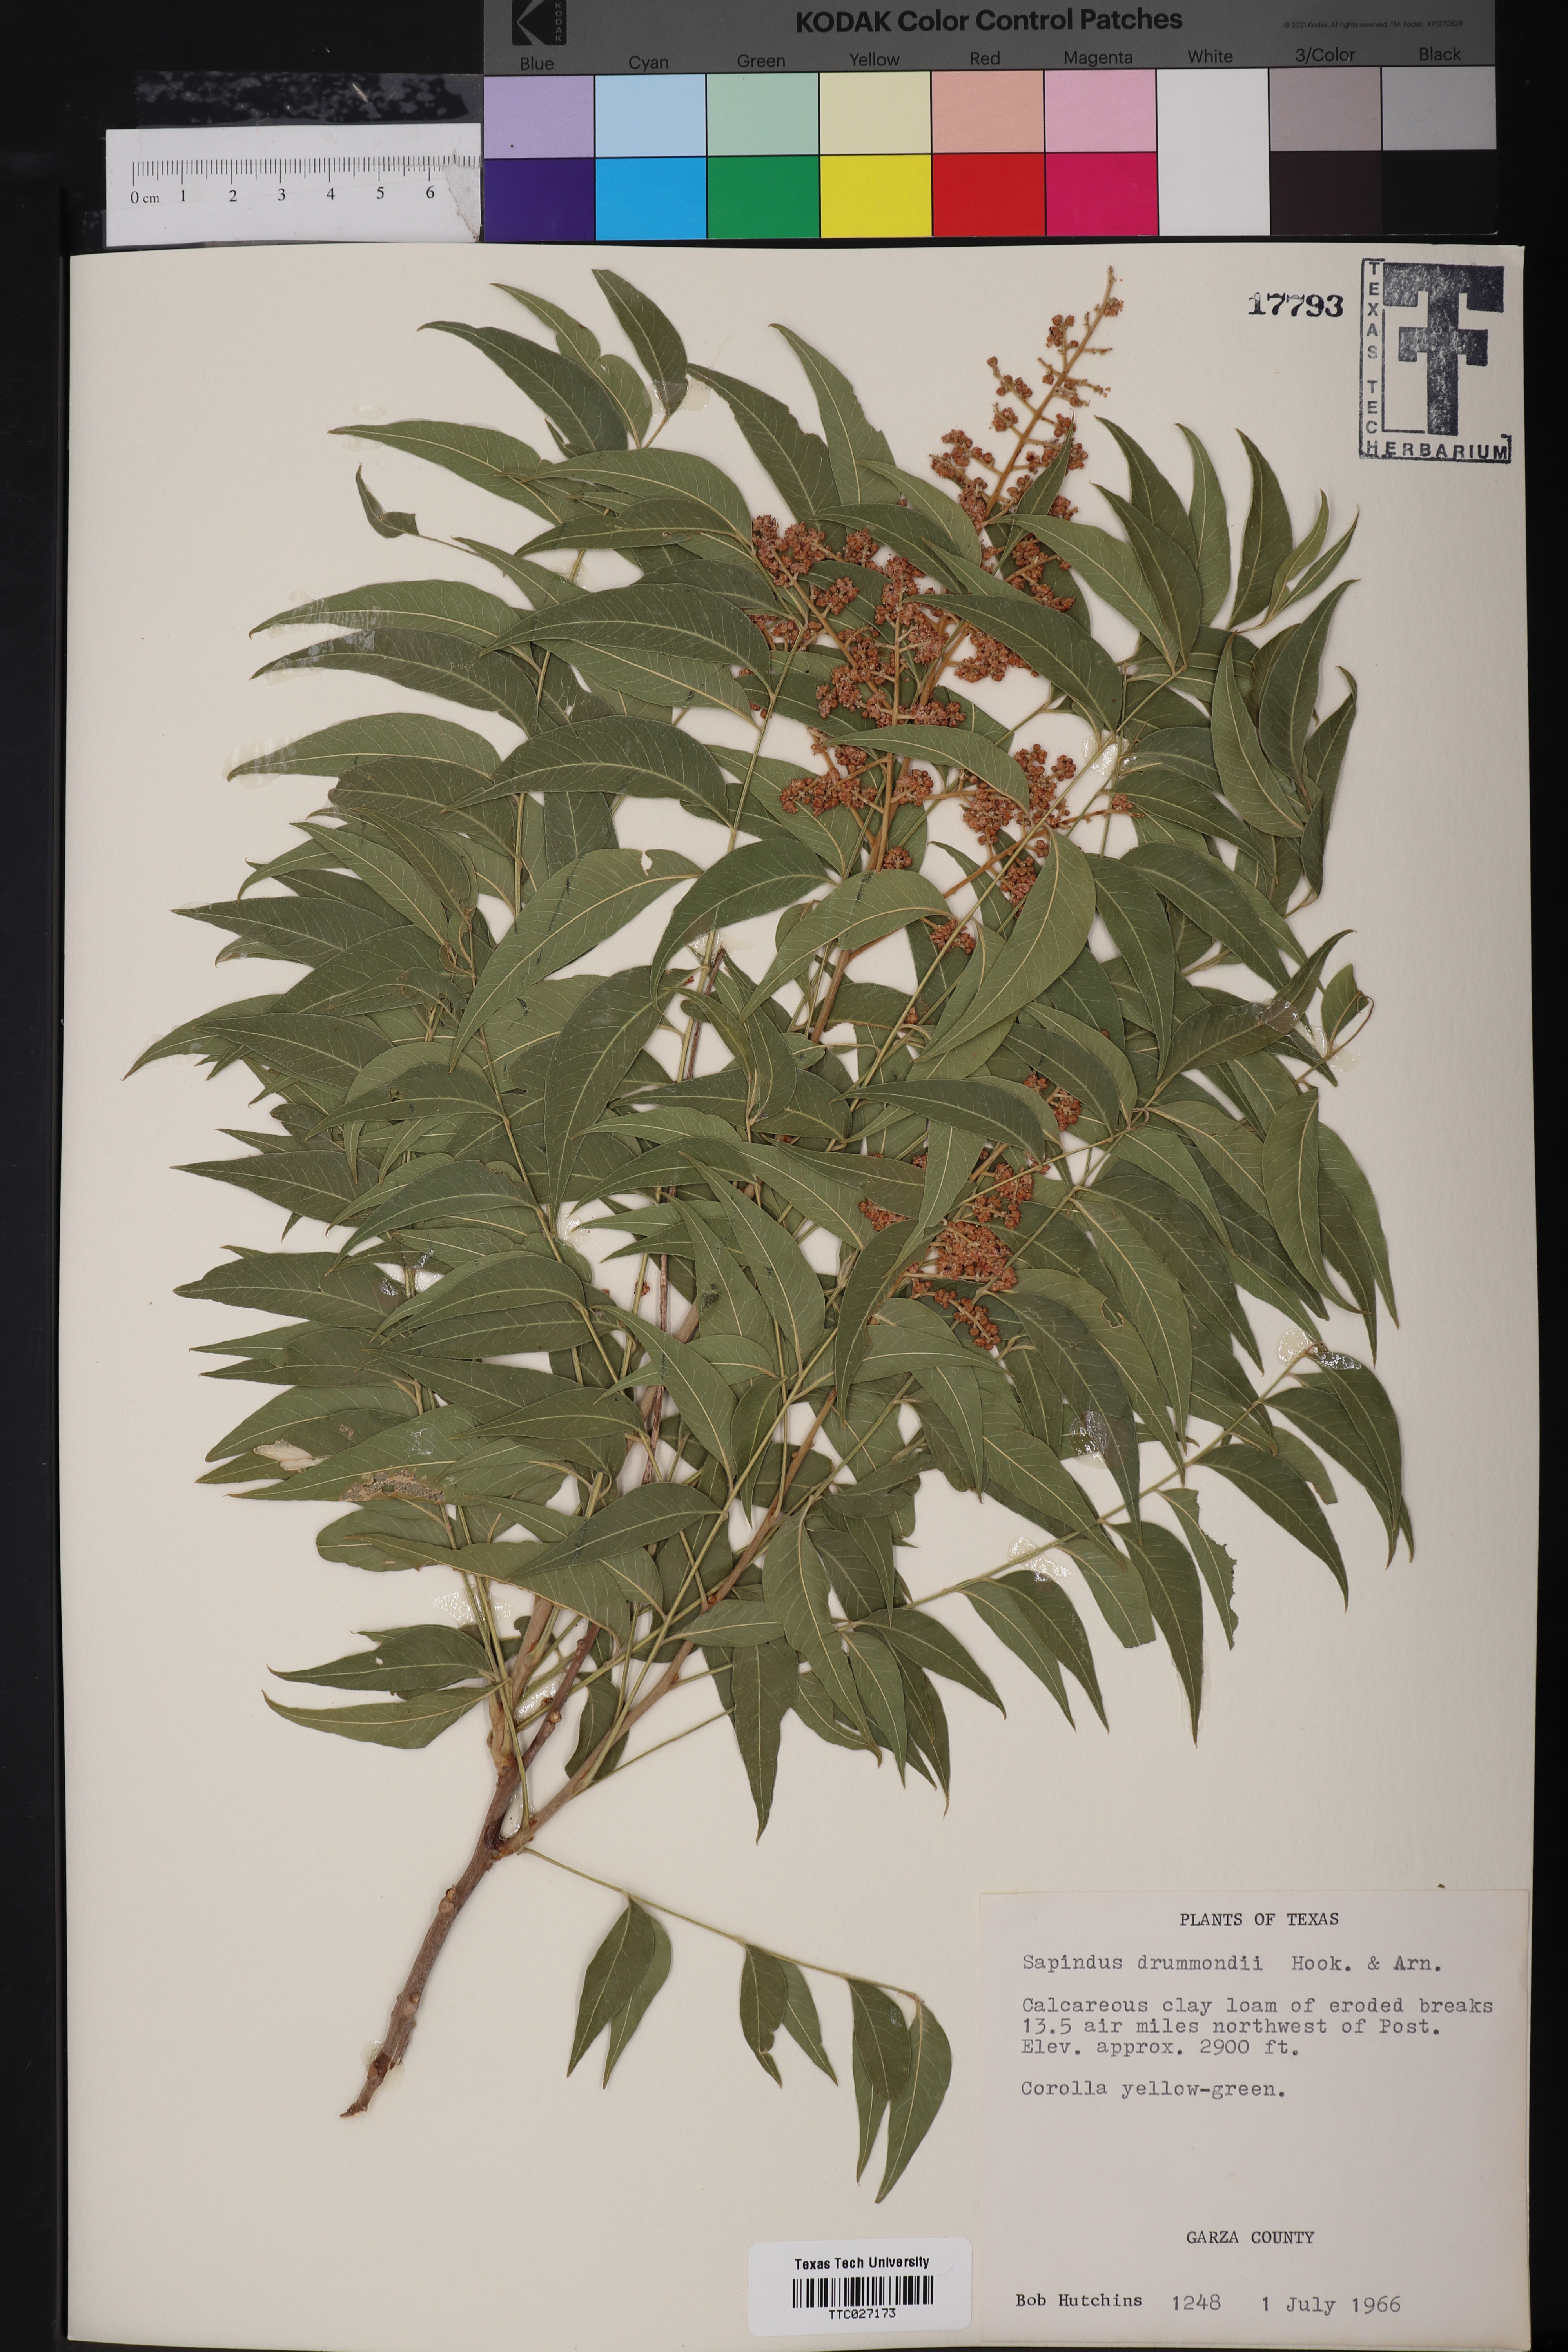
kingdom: Plantae
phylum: Tracheophyta
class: Magnoliopsida
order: Sapindales
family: Sapindaceae
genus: Sapindus
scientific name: Sapindus drummondii
